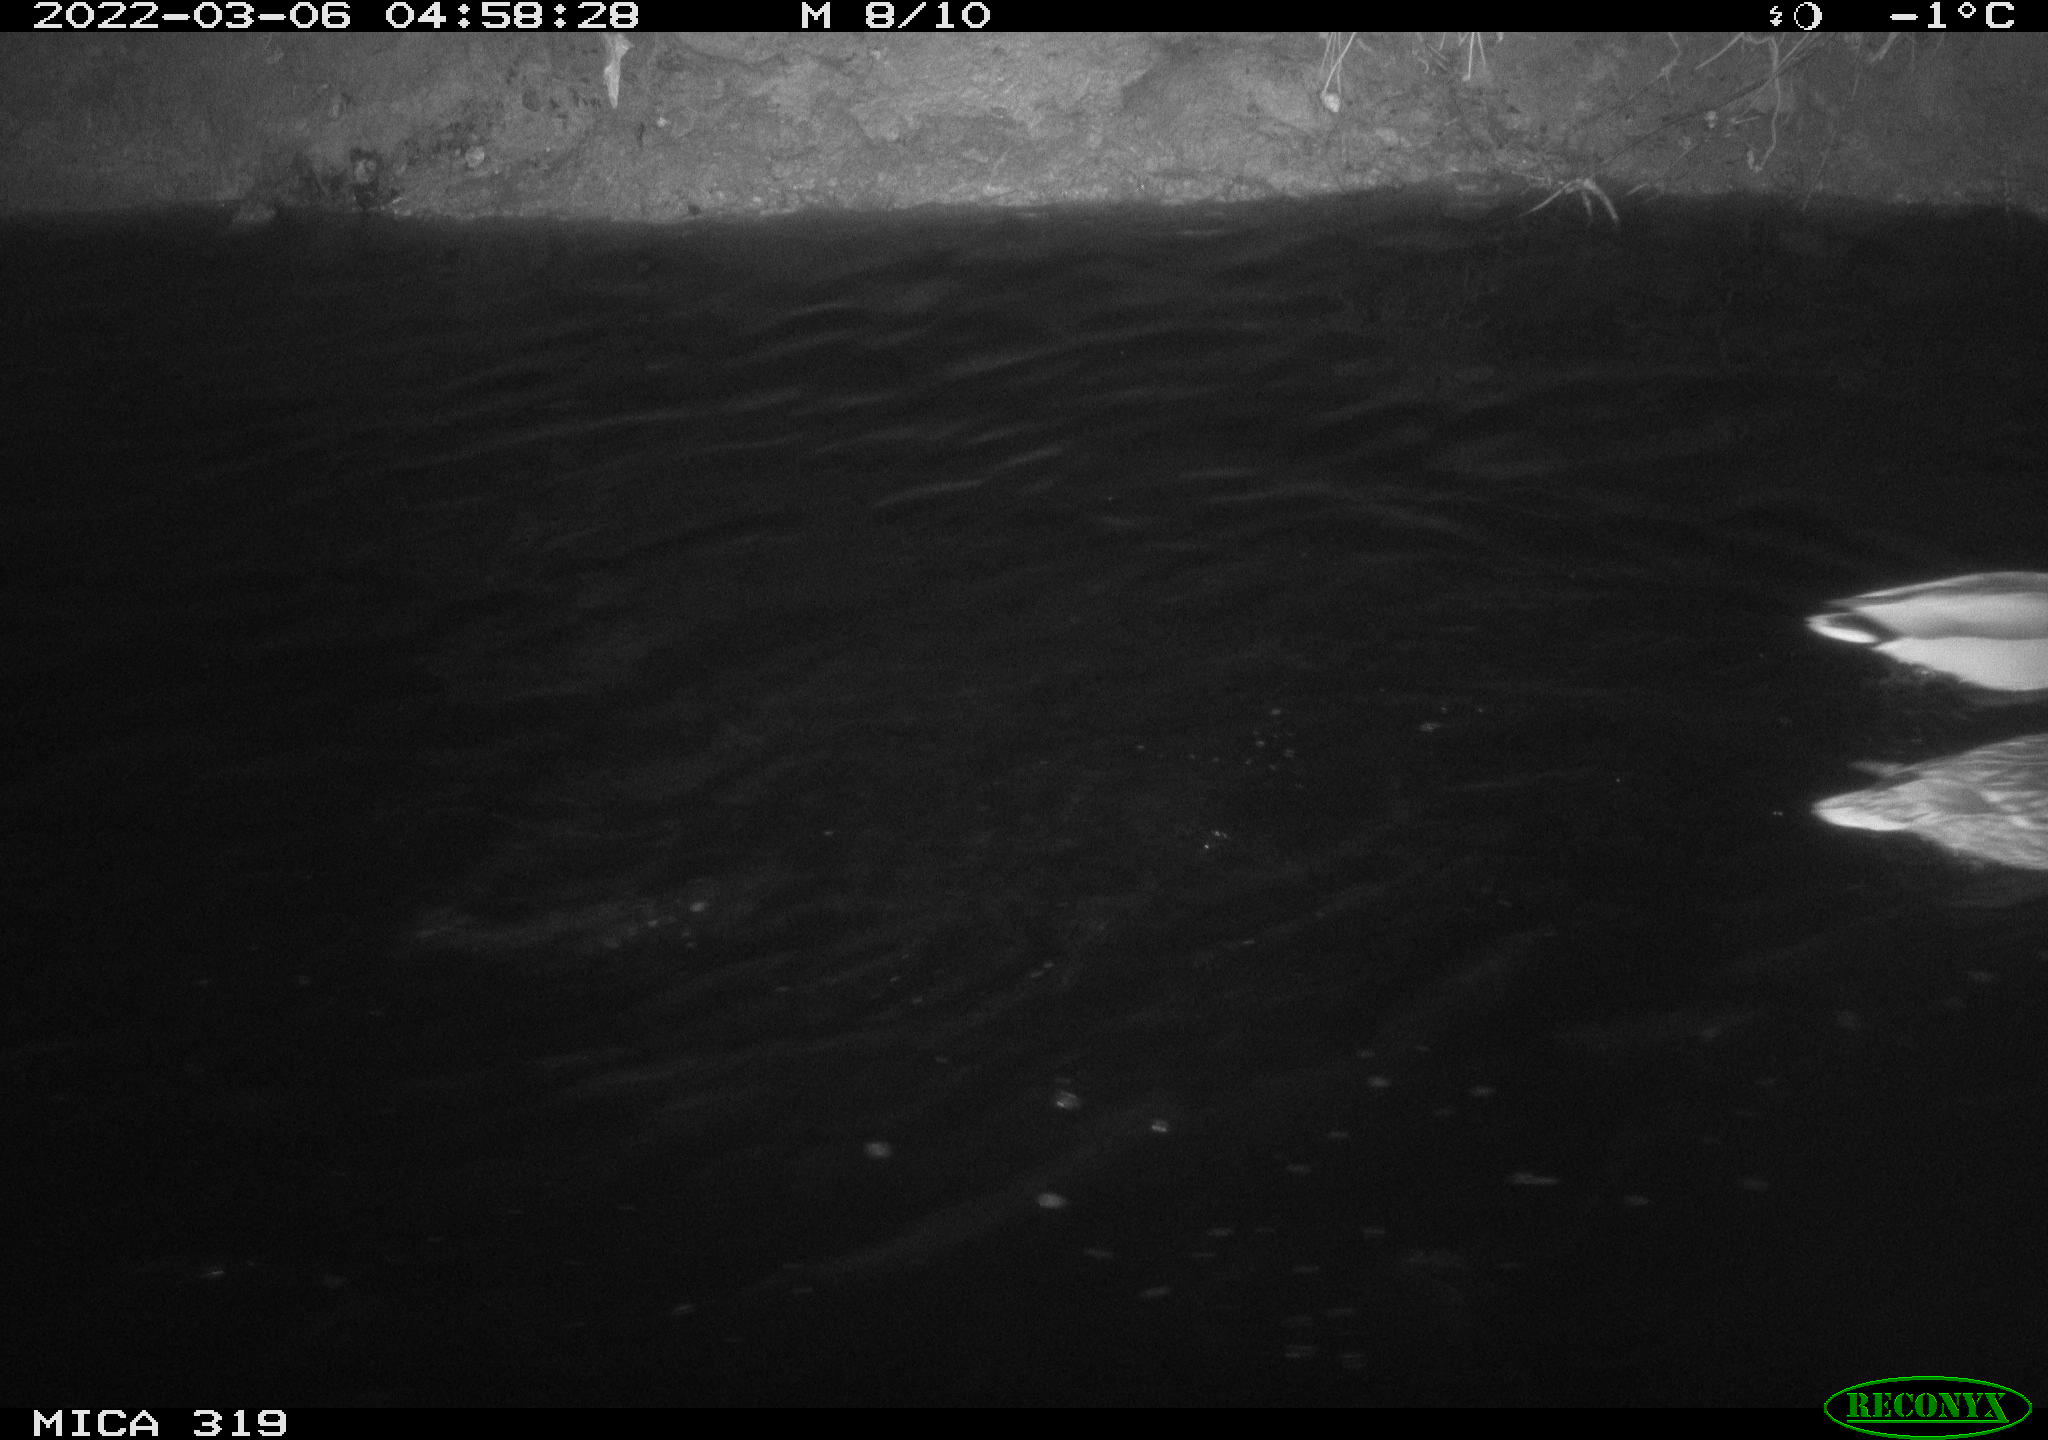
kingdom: Animalia
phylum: Chordata
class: Aves
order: Anseriformes
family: Anatidae
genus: Anas
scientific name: Anas platyrhynchos
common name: Mallard
